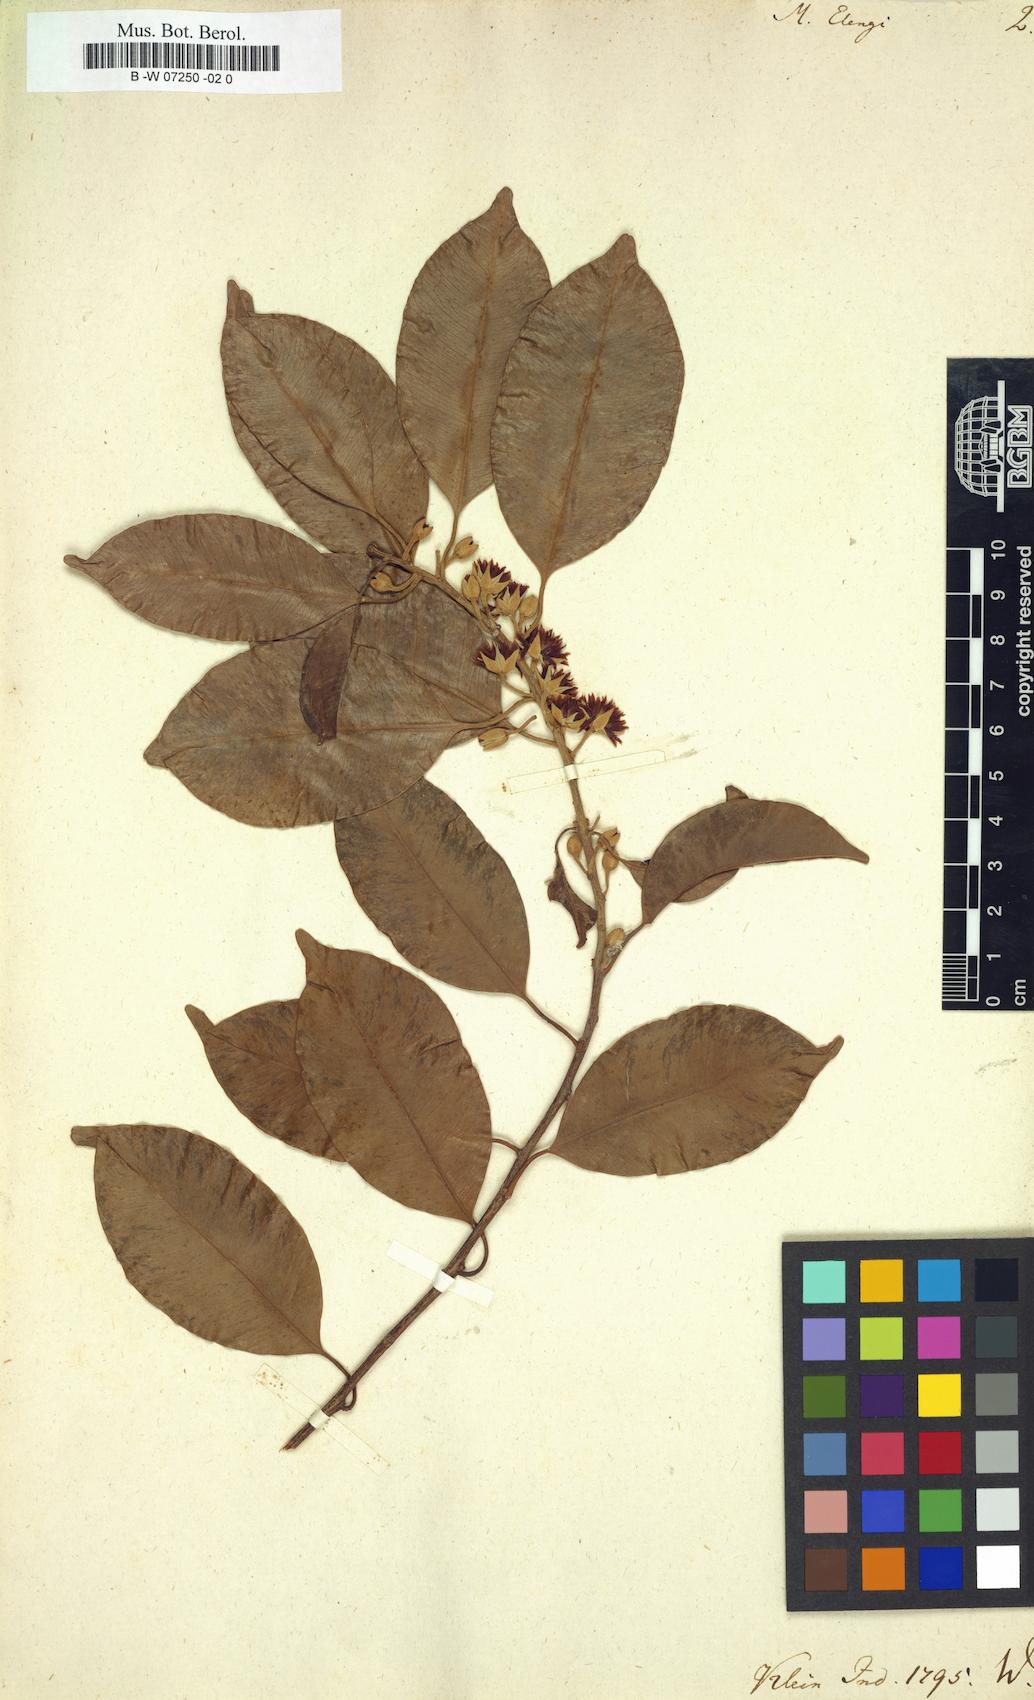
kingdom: Plantae
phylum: Tracheophyta
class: Magnoliopsida
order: Ericales
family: Sapotaceae
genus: Mimusops
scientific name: Mimusops elengi
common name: Spanish cherry
